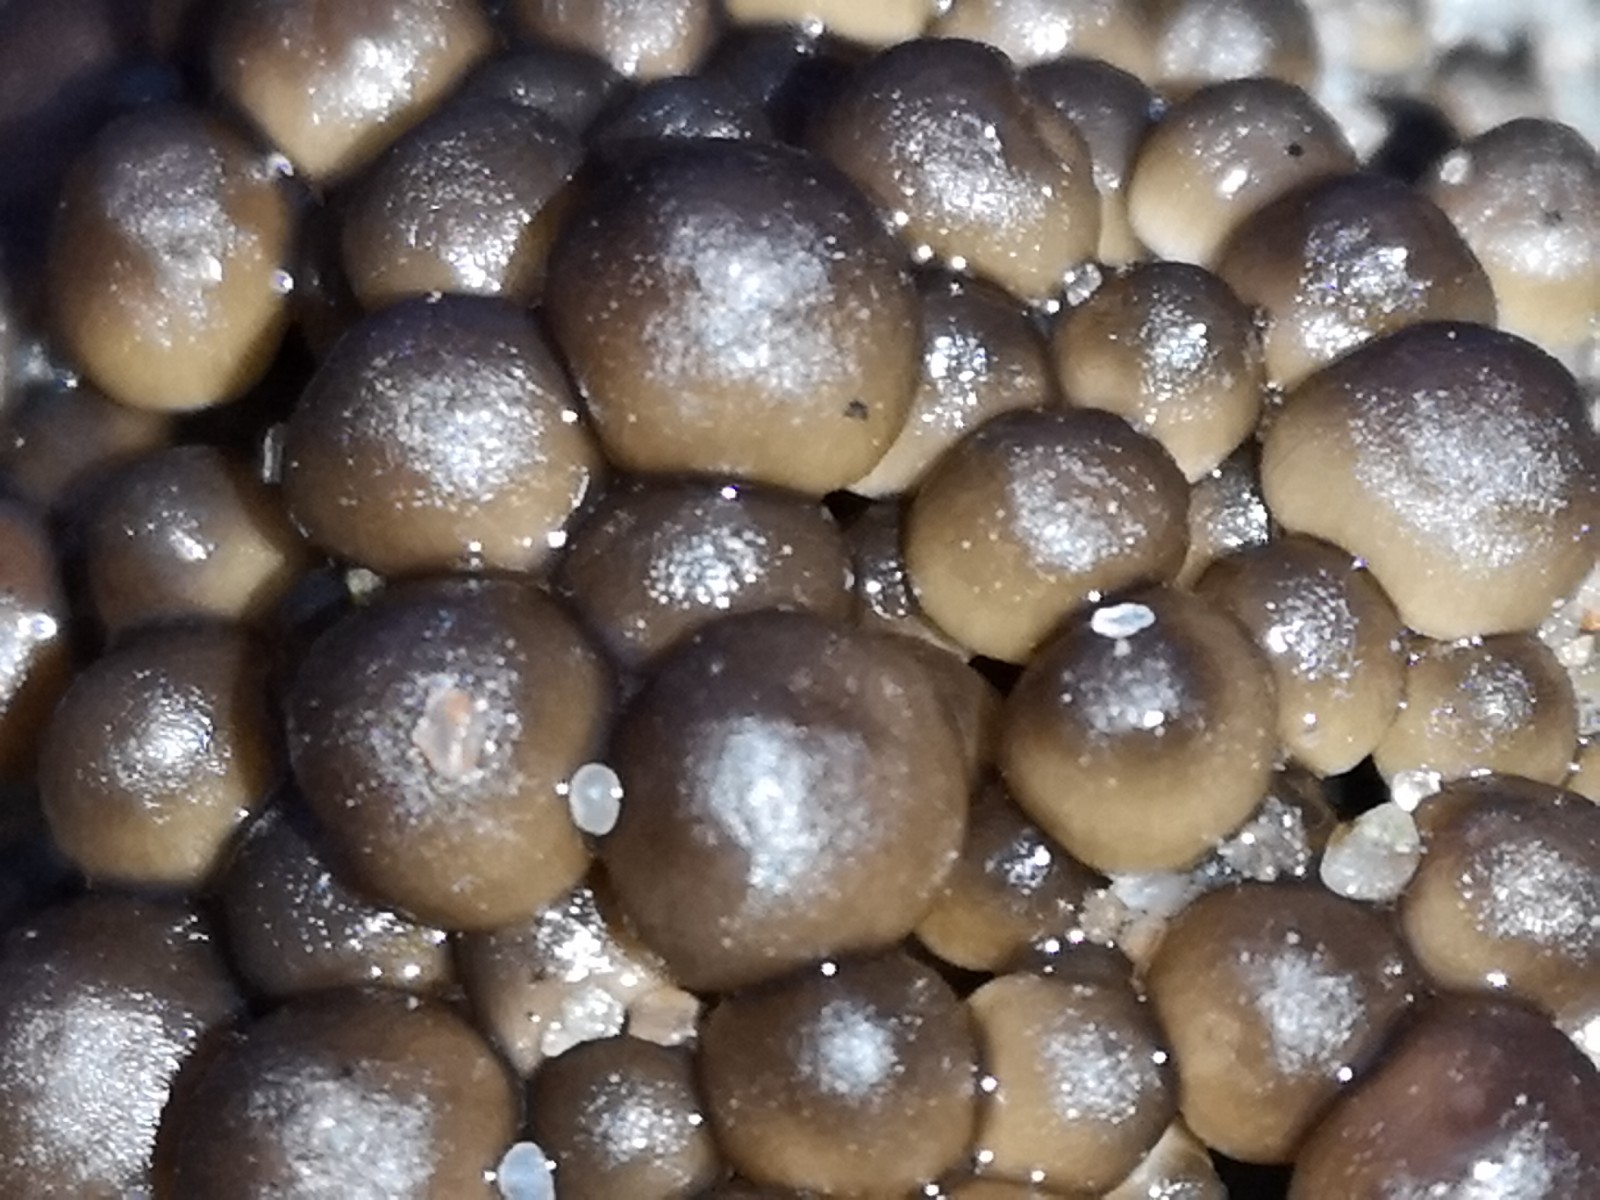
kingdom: Fungi
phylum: Basidiomycota
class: Agaricomycetes
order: Agaricales
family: Mycenaceae
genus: Mycena
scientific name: Mycena tintinnabulum
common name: vinter-huesvamp
